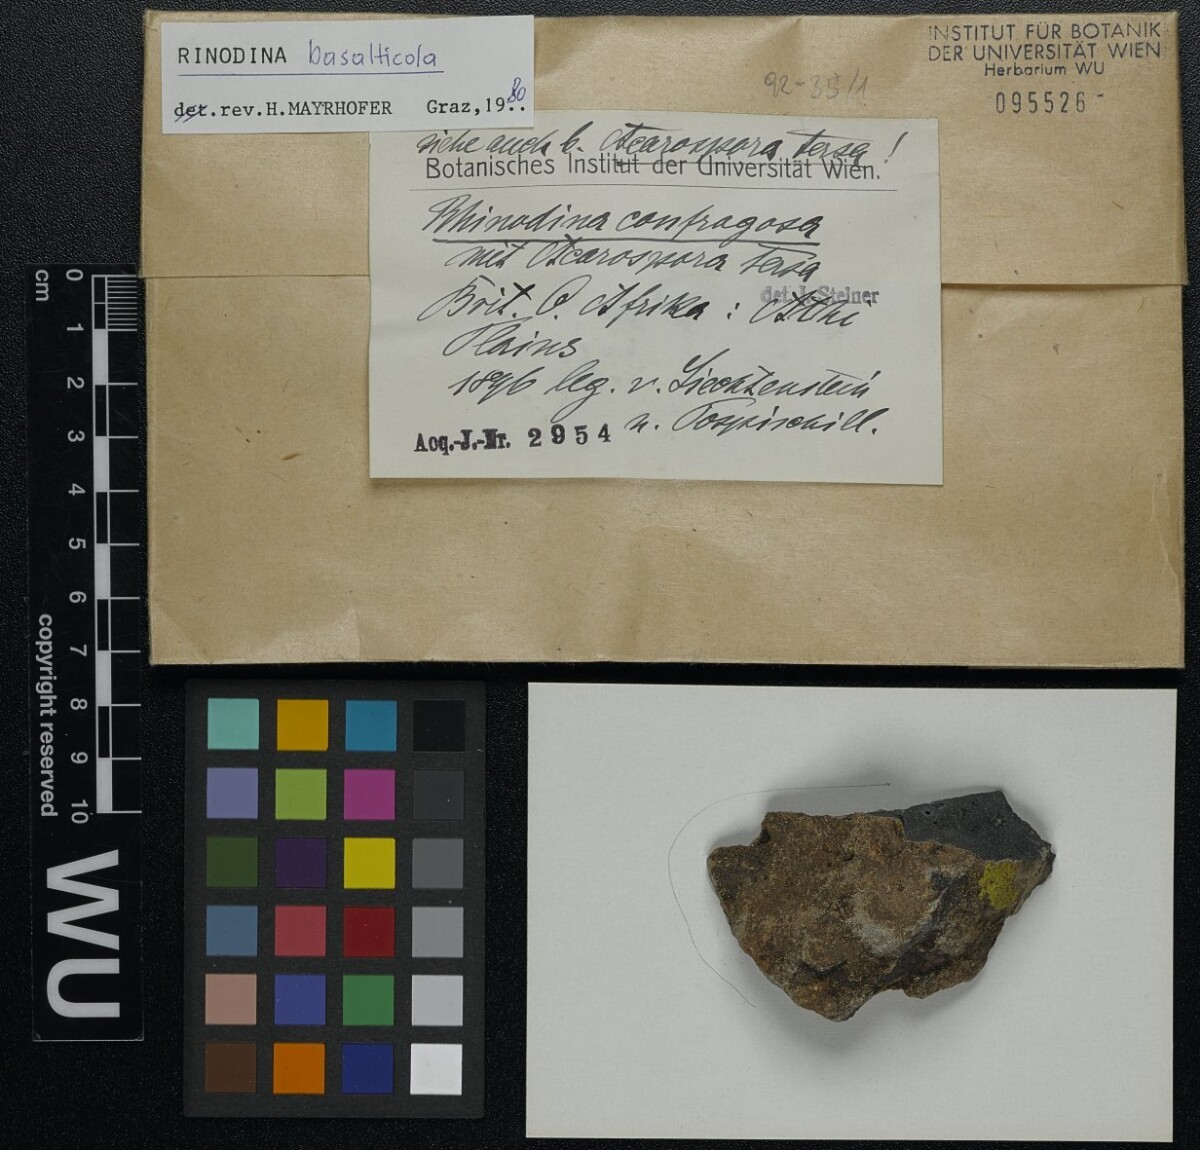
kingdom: Fungi
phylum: Ascomycota
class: Lecanoromycetes
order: Caliciales
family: Physciaceae
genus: Rinodina
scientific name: Rinodina
